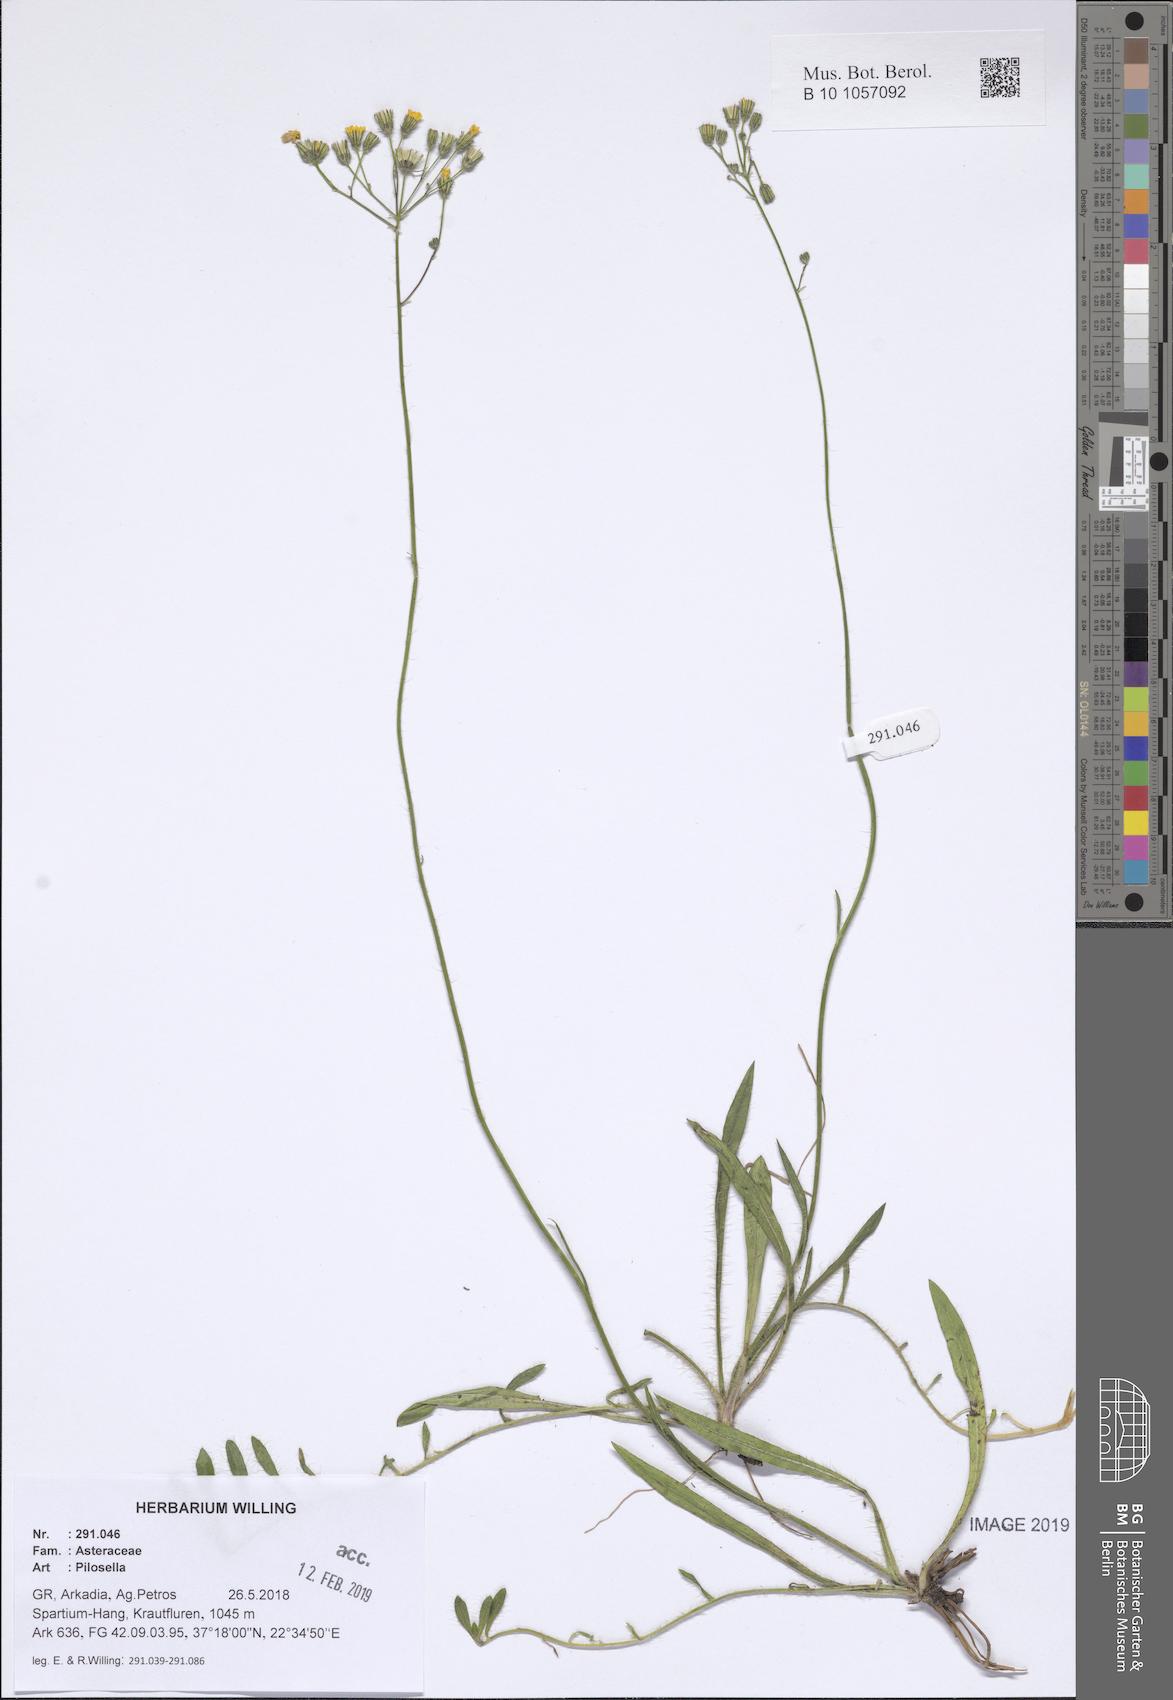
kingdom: Plantae
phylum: Tracheophyta
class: Magnoliopsida
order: Asterales
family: Asteraceae
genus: Pilosella
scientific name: Pilosella
